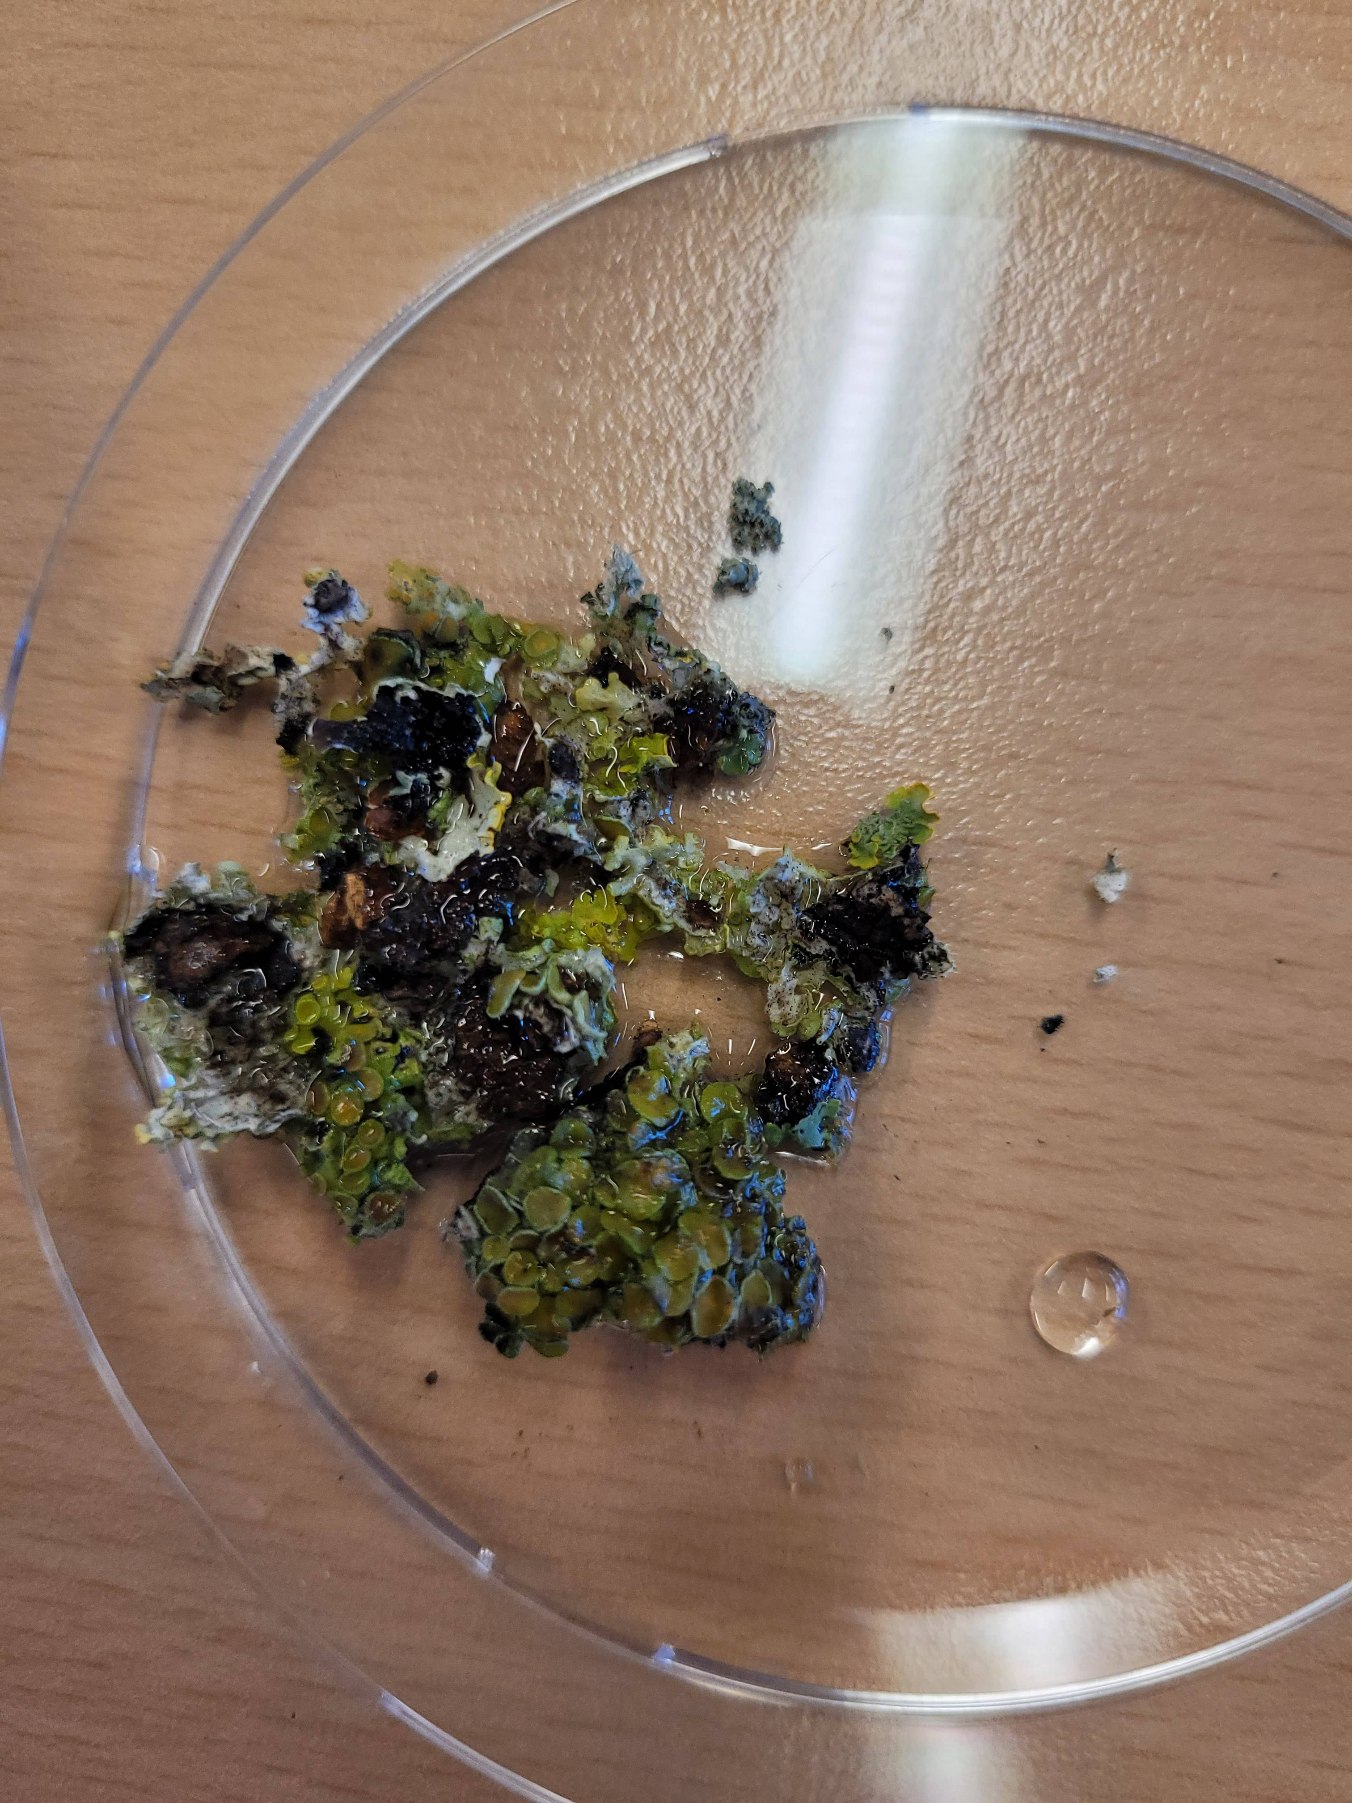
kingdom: Fungi
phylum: Ascomycota
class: Lecanoromycetes
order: Teloschistales
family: Teloschistaceae
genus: Xanthoria
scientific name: Xanthoria parietina
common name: Almindelig væggelav
